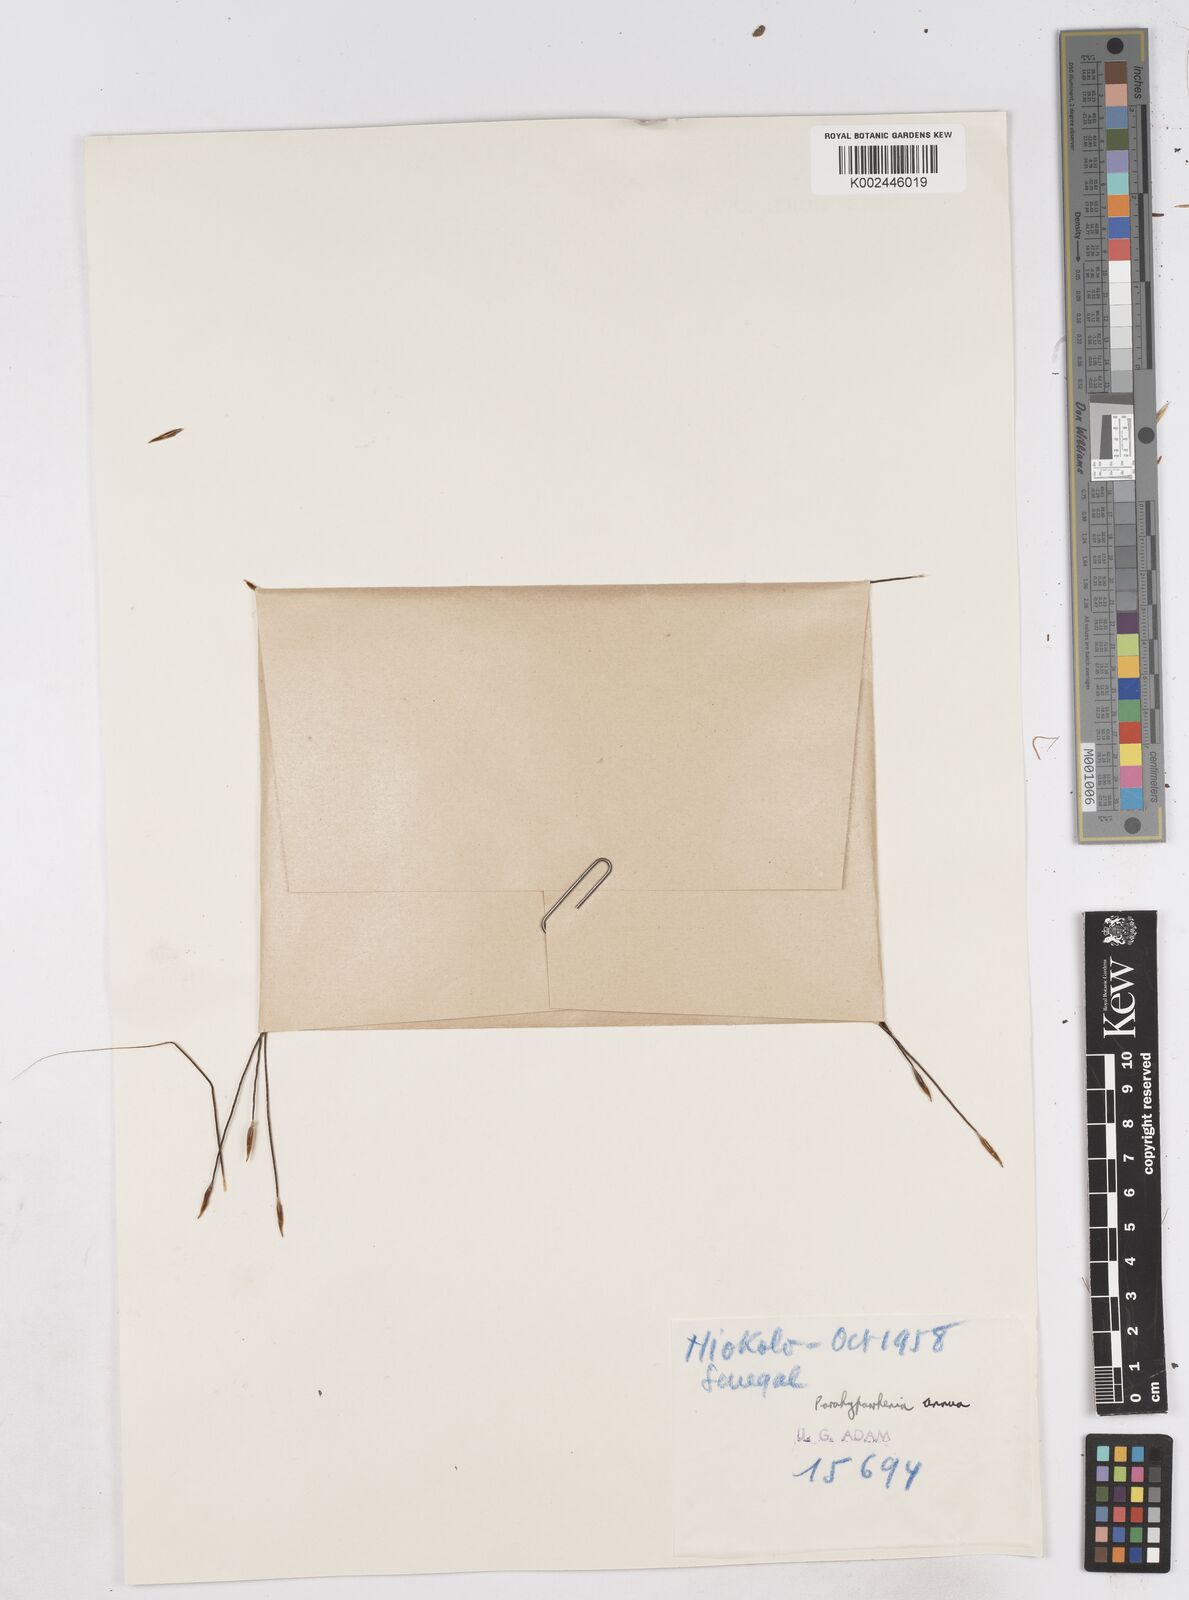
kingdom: Plantae
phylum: Tracheophyta
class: Liliopsida
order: Poales
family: Poaceae
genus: Parahyparrhenia
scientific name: Parahyparrhenia annua
